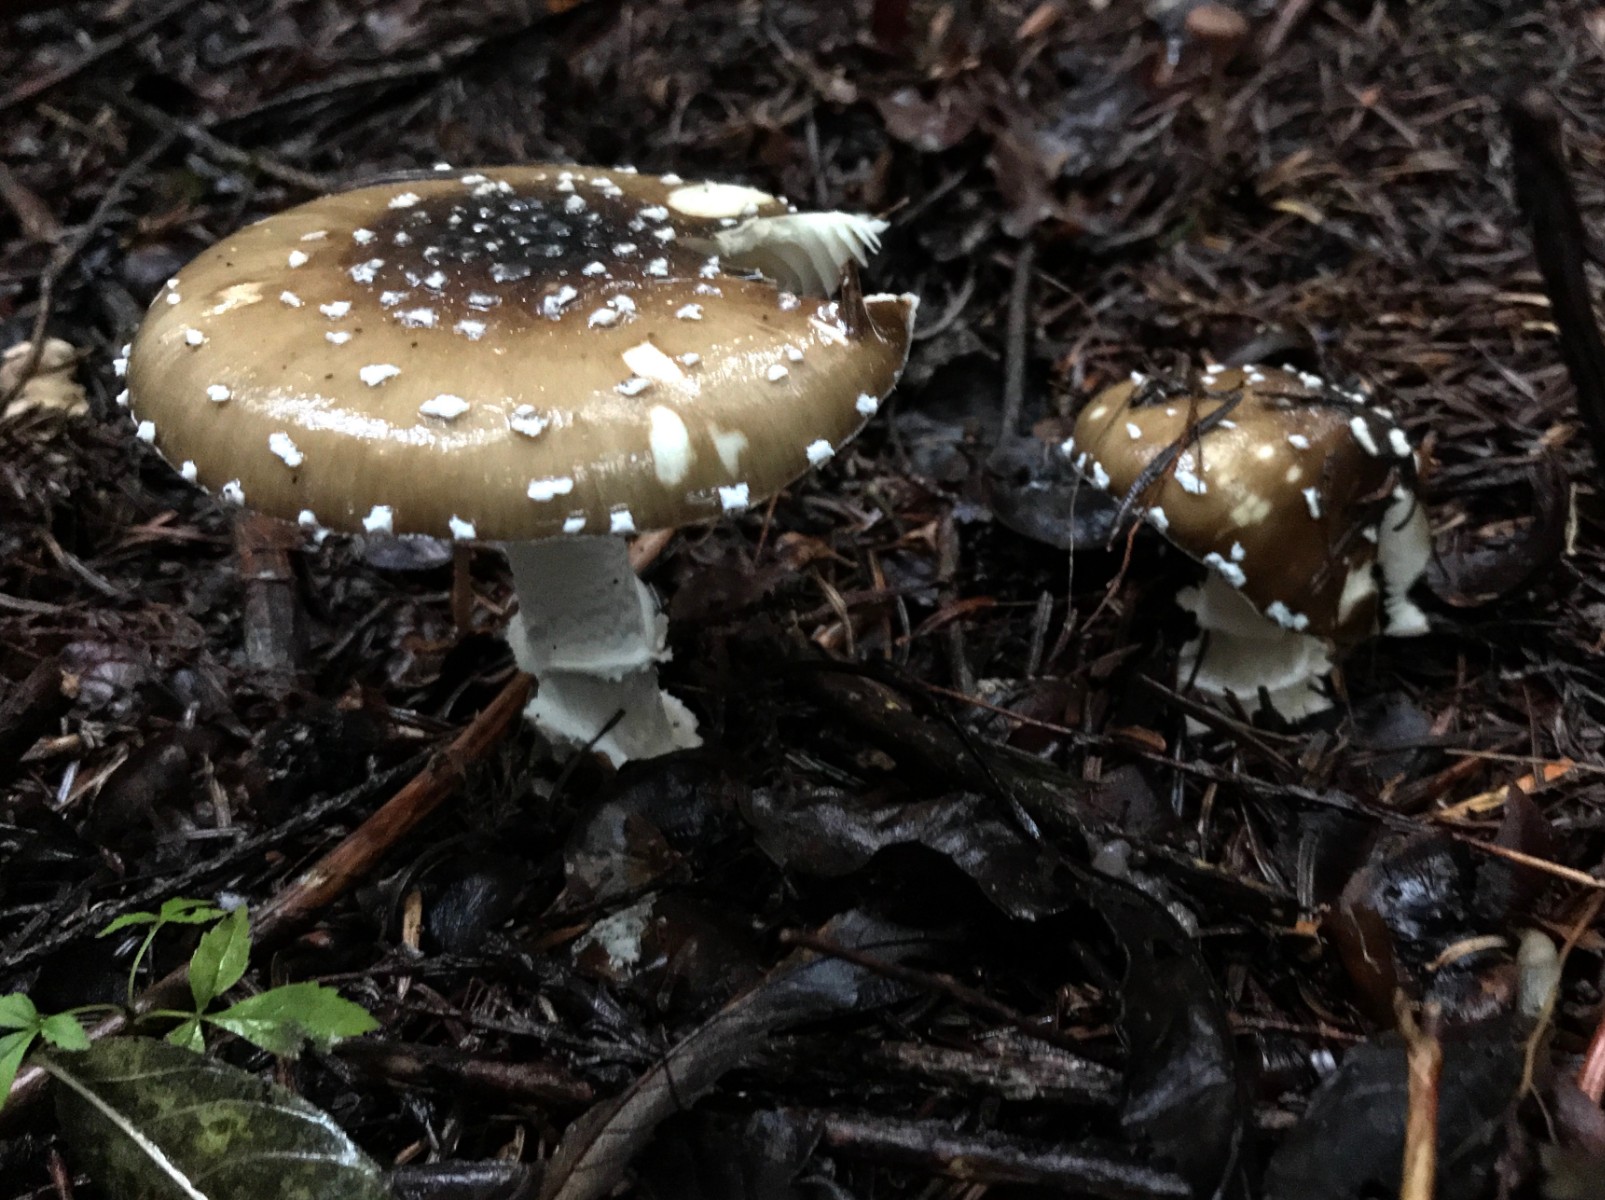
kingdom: Fungi
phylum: Basidiomycota
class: Agaricomycetes
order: Agaricales
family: Amanitaceae
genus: Amanita
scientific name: Amanita pantherina
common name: panter-fluesvamp
